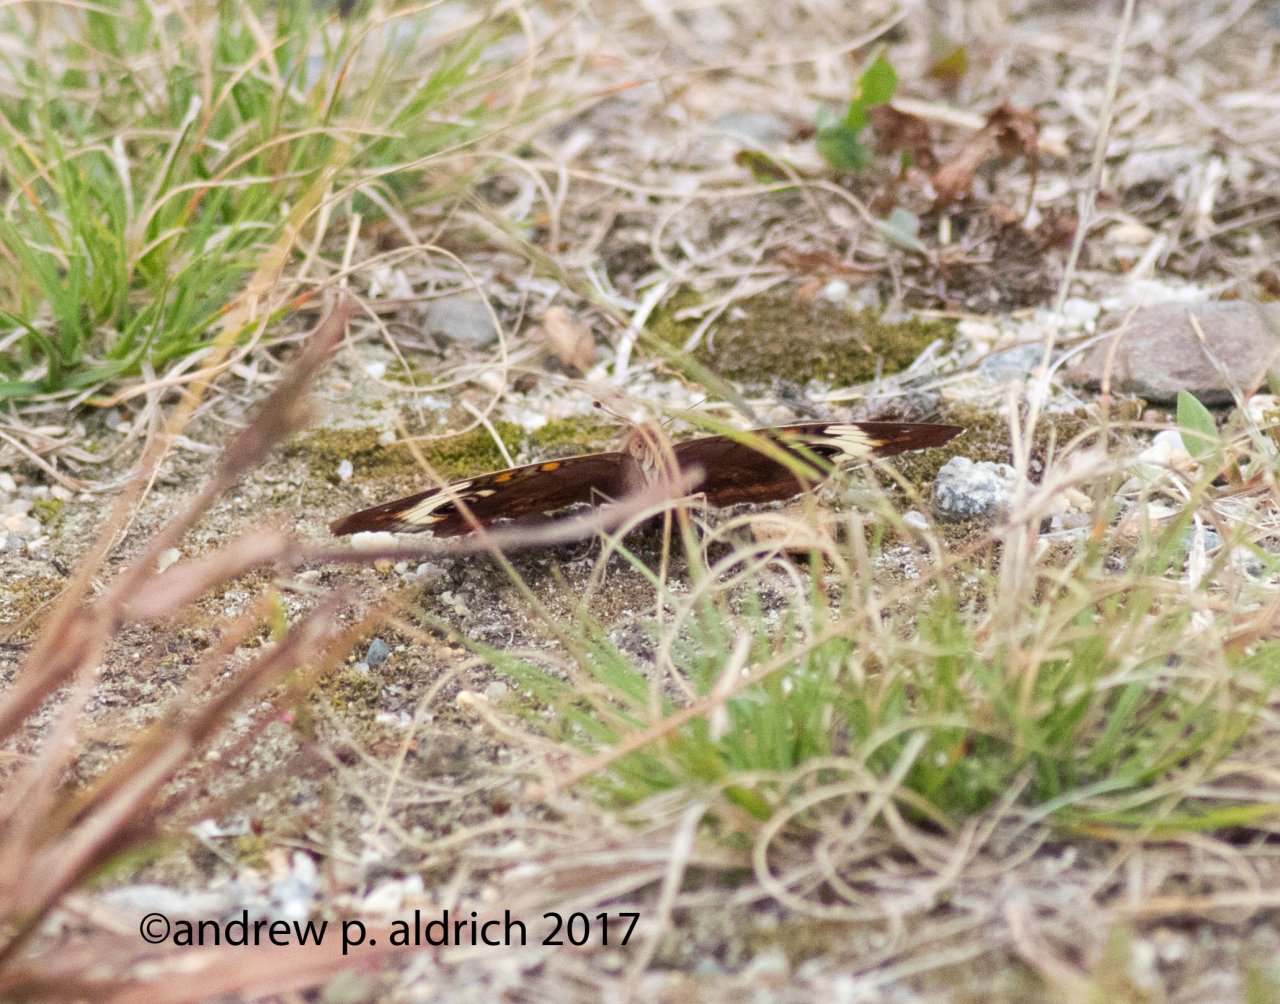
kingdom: Animalia
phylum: Arthropoda
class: Insecta
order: Lepidoptera
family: Nymphalidae
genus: Junonia
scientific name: Junonia coenia
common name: Common Buckeye
